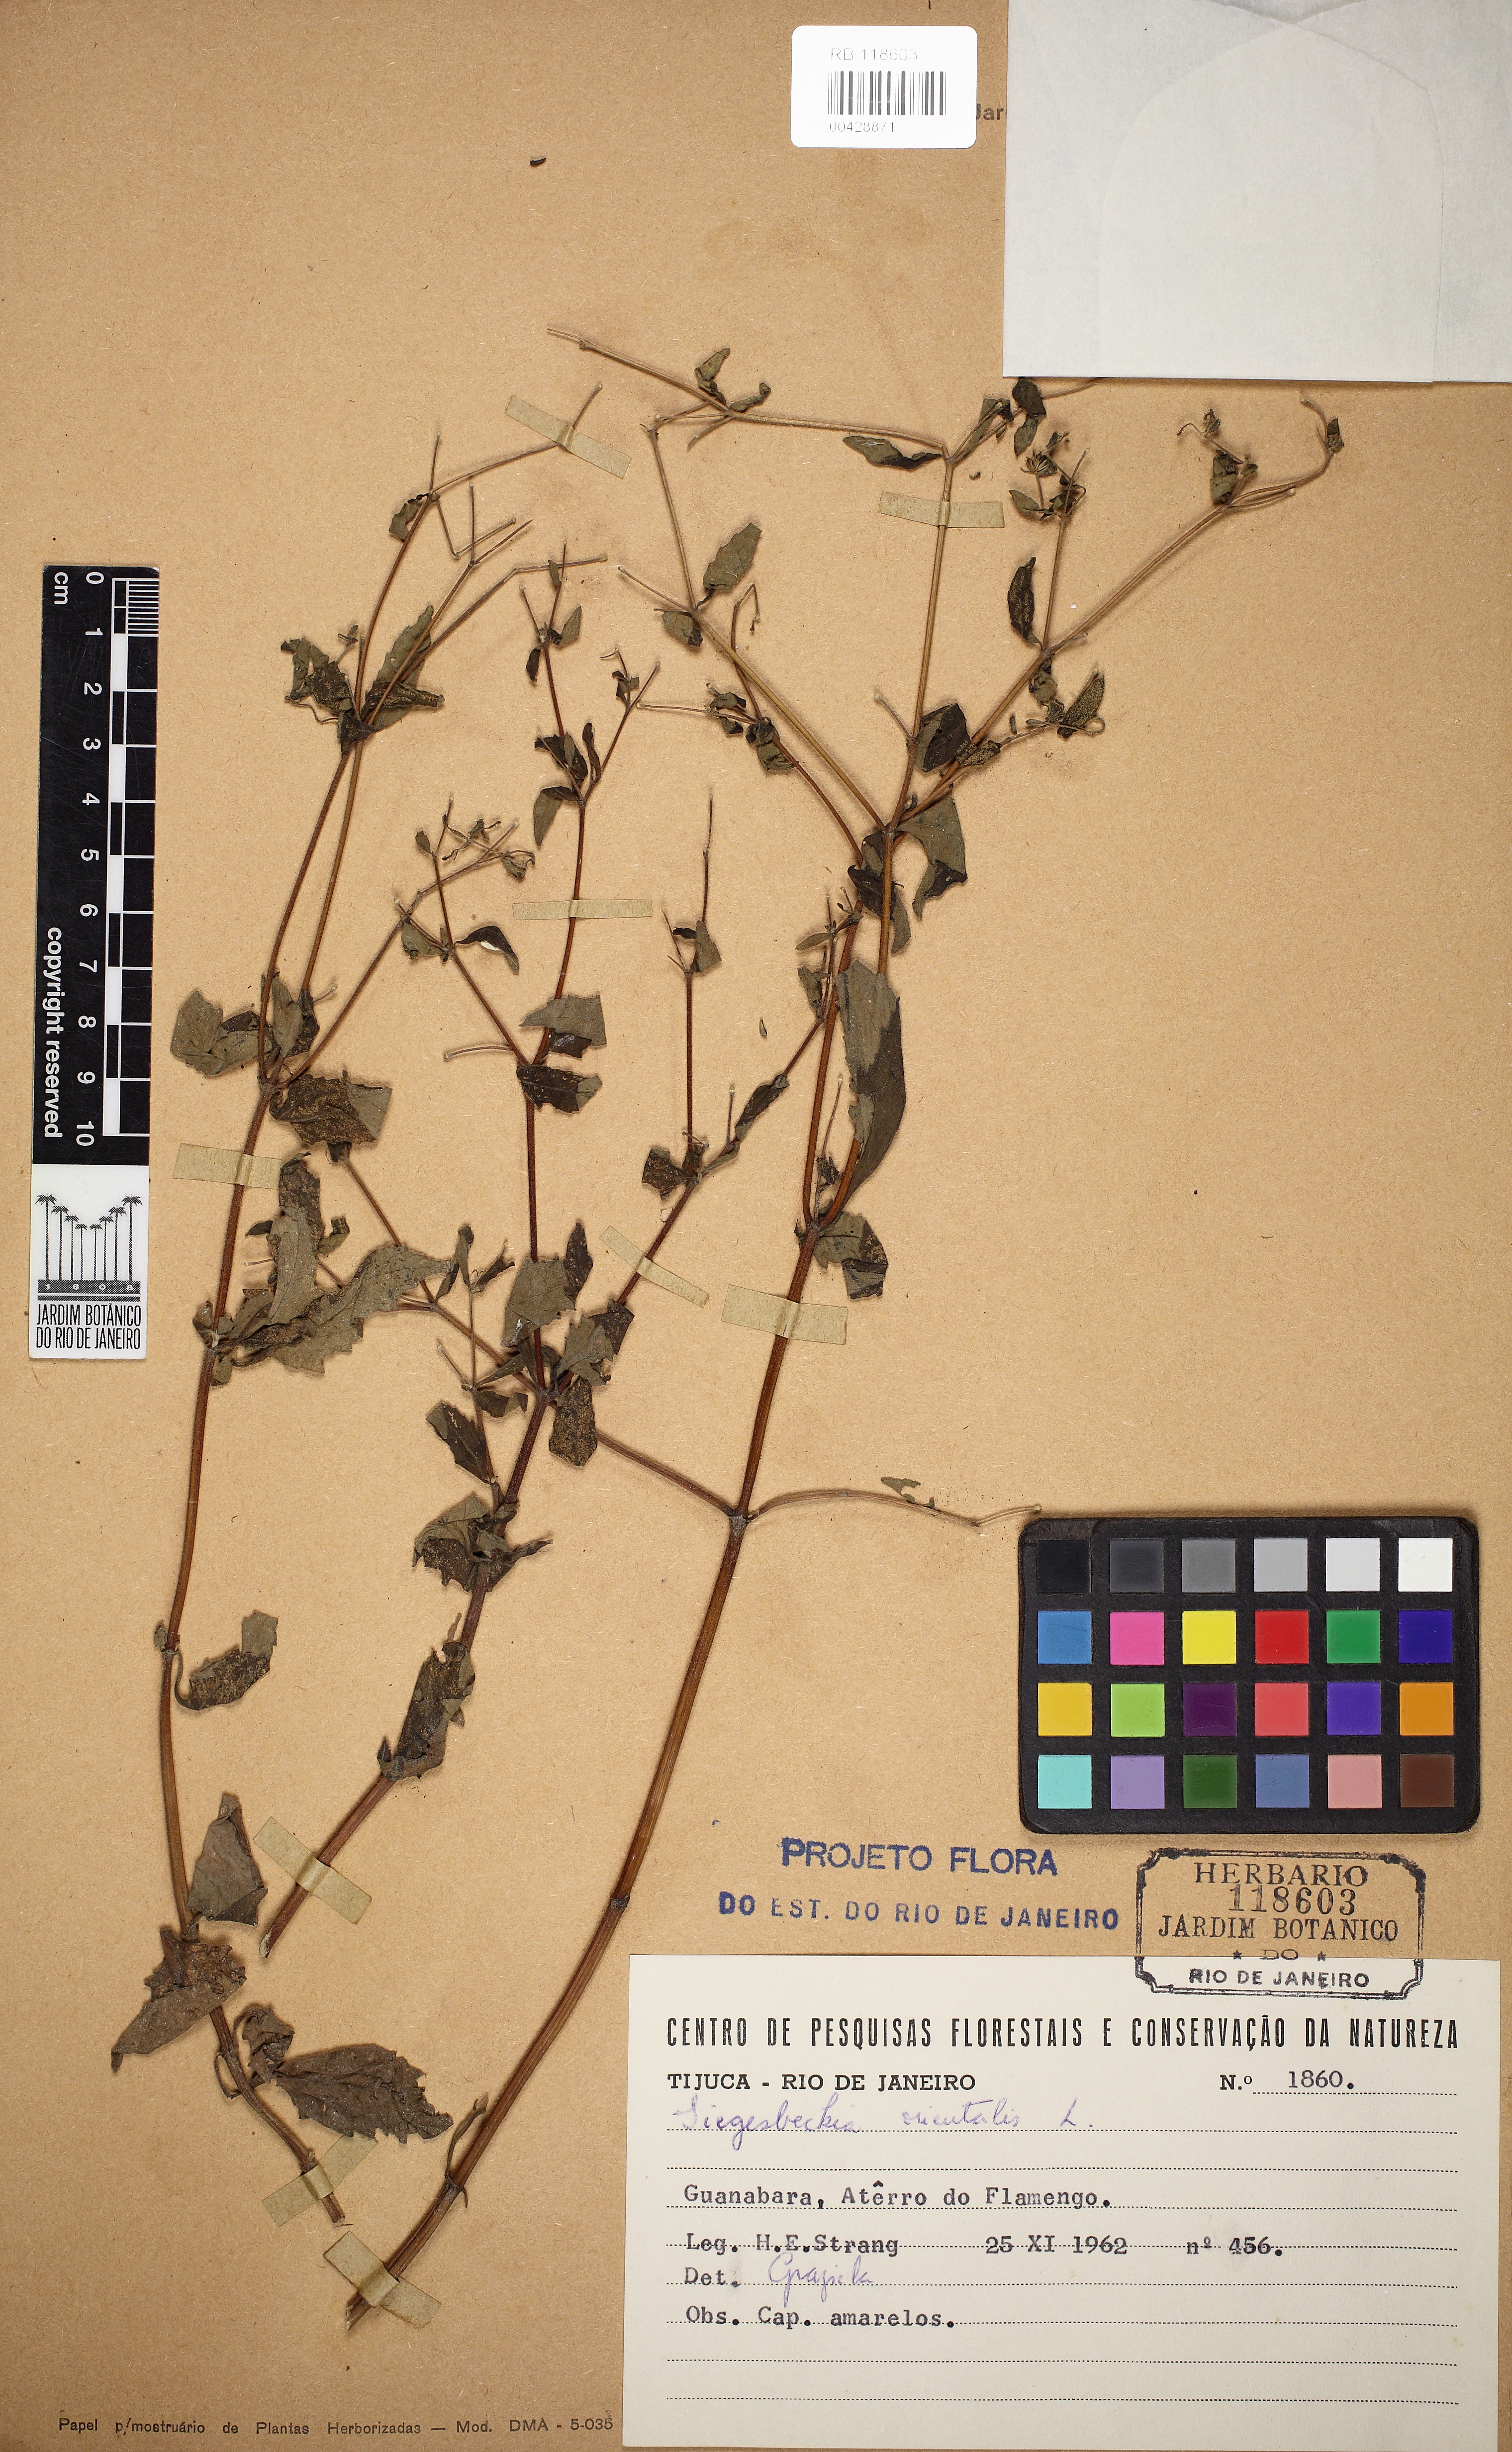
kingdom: Plantae
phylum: Tracheophyta
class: Magnoliopsida
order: Asterales
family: Asteraceae
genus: Sigesbeckia
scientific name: Sigesbeckia orientalis
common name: Eastern st paul's-wort
